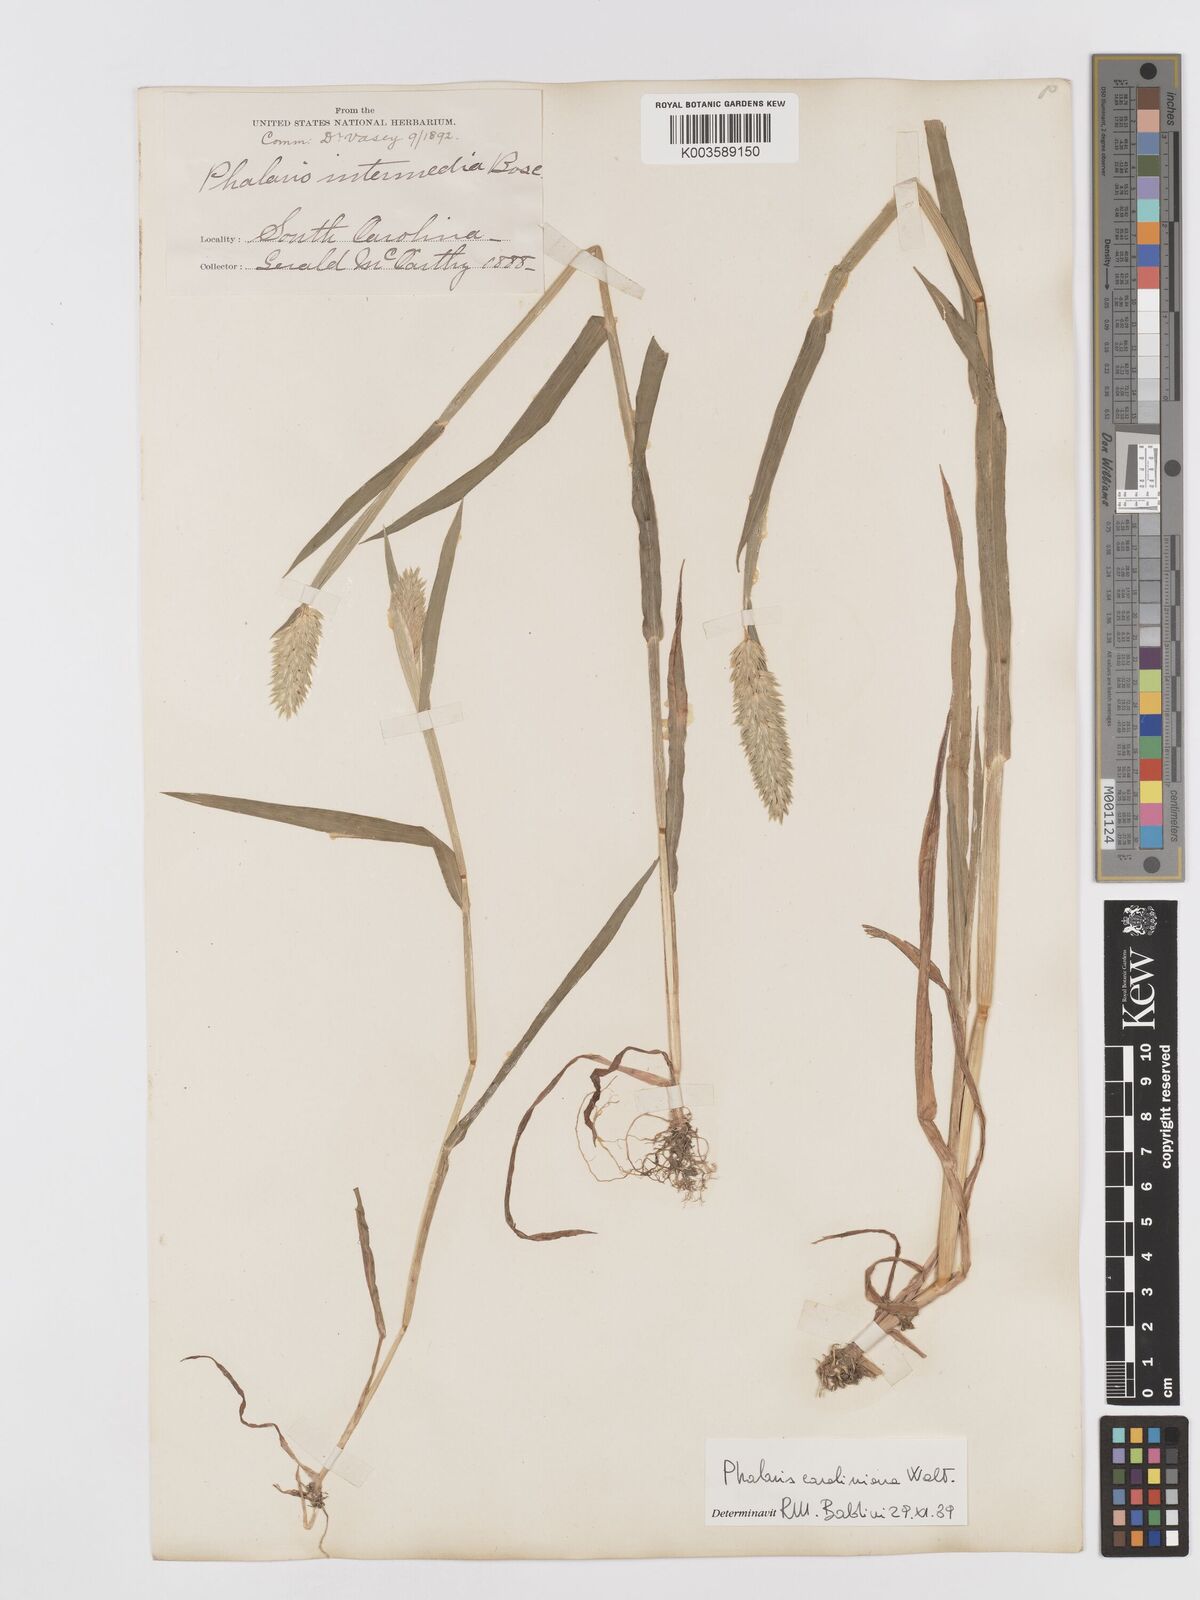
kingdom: Plantae
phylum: Tracheophyta
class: Liliopsida
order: Poales
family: Poaceae
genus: Phalaris
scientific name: Phalaris caroliniana
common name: May grass
